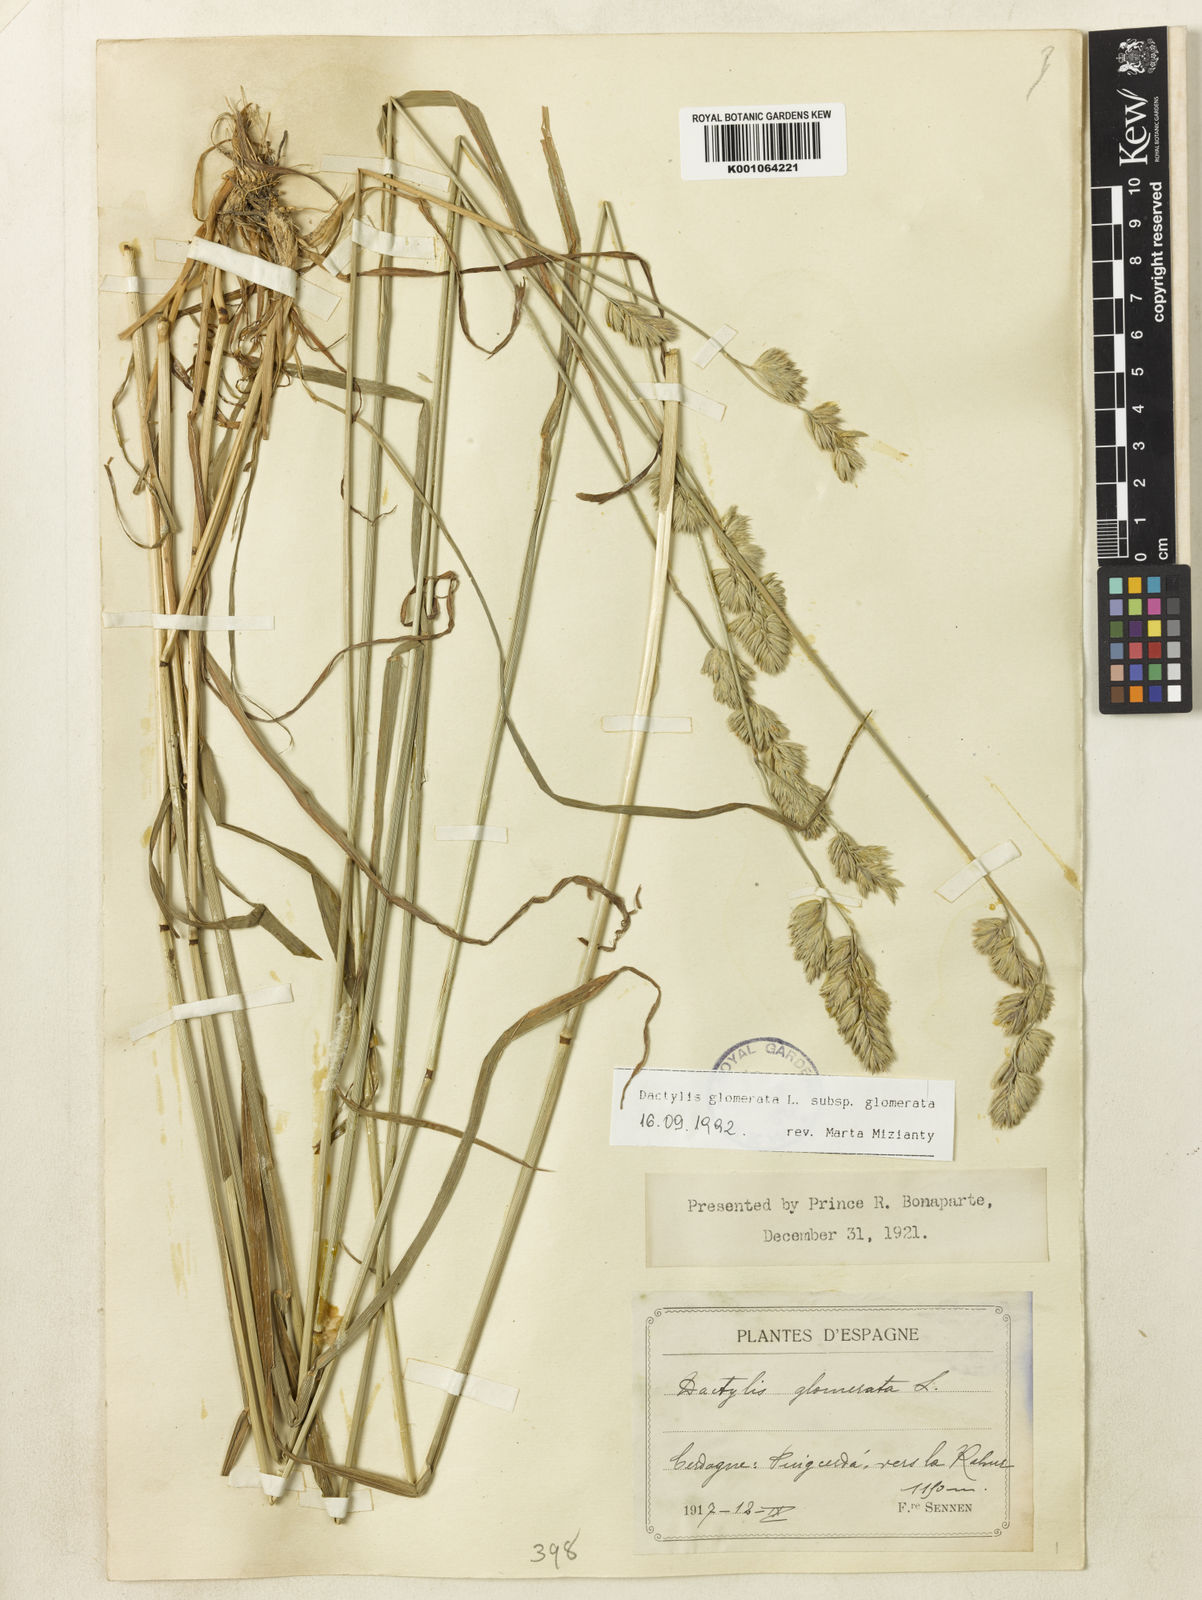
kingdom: Plantae
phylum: Tracheophyta
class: Liliopsida
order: Poales
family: Poaceae
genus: Dactylis
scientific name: Dactylis glomerata
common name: Orchardgrass
